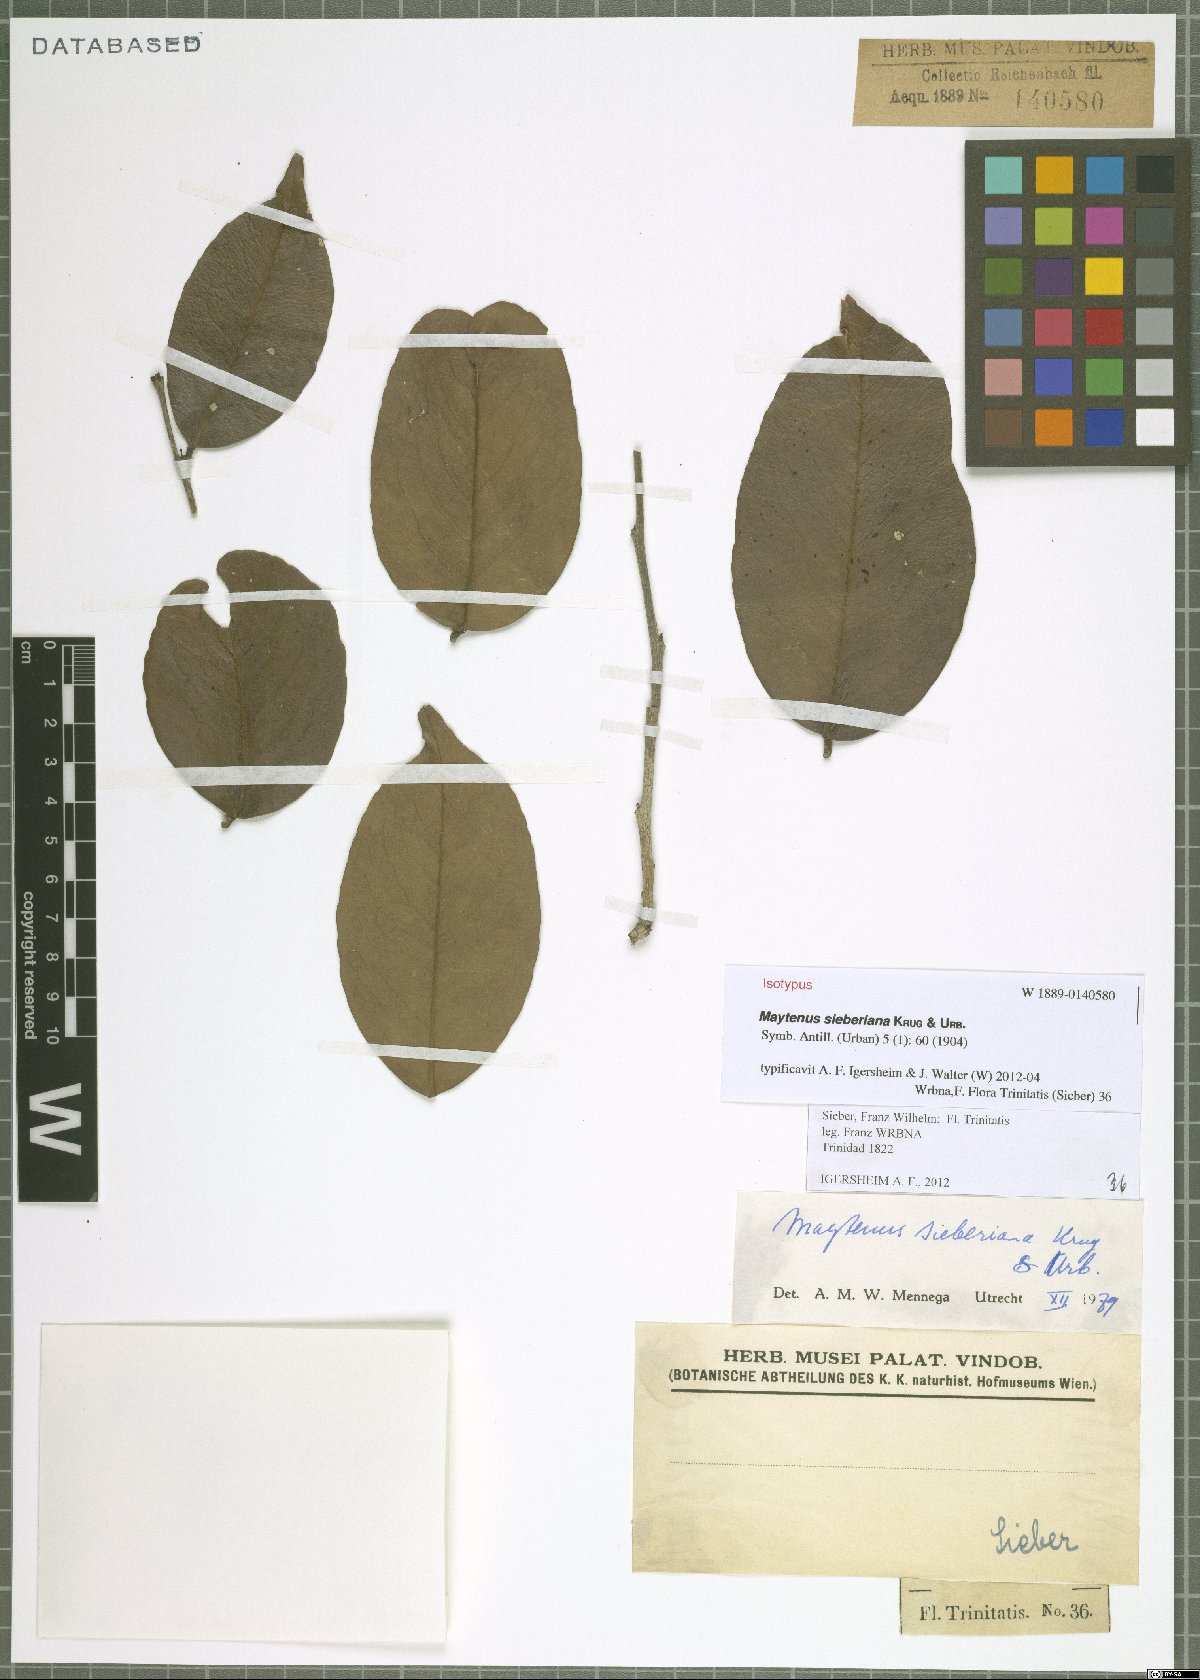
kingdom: Plantae
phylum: Tracheophyta
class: Magnoliopsida
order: Celastrales
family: Celastraceae
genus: Monteverdia
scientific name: Monteverdia sieberiana
